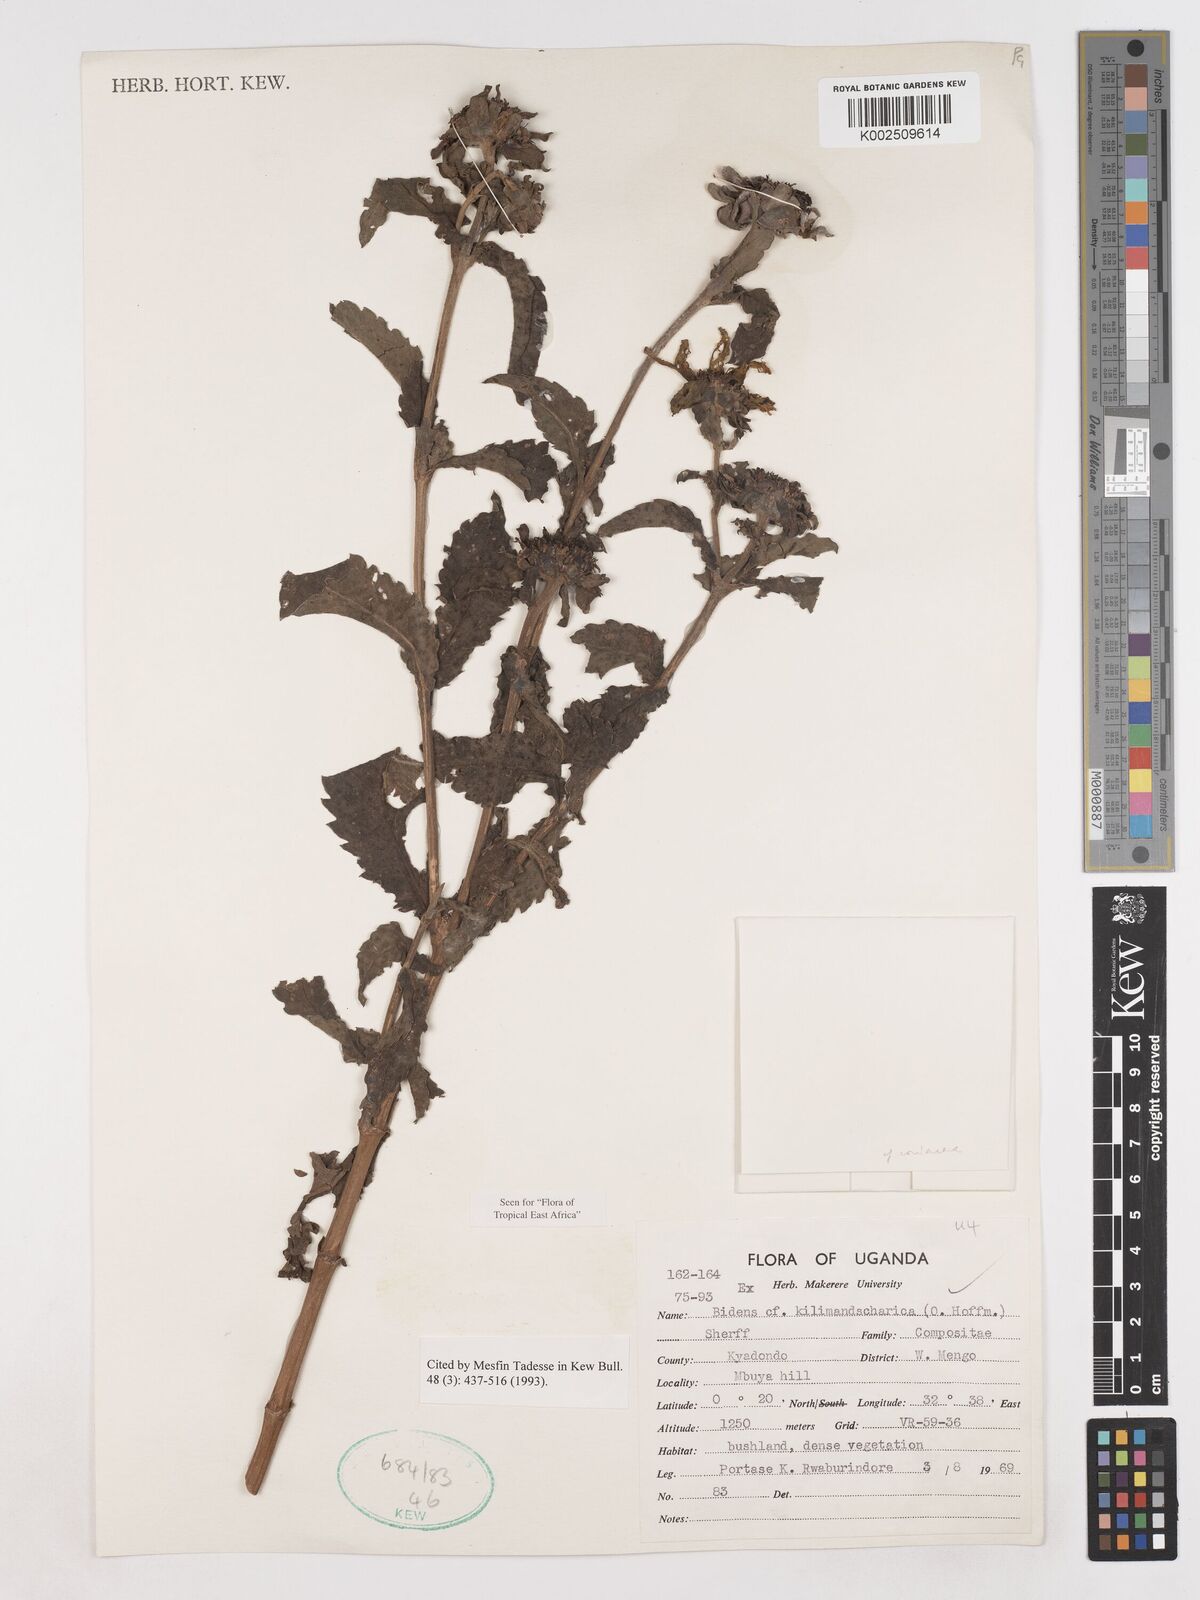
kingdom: Plantae
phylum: Tracheophyta
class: Magnoliopsida
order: Asterales
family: Asteraceae
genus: Bidens
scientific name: Bidens buchneri
